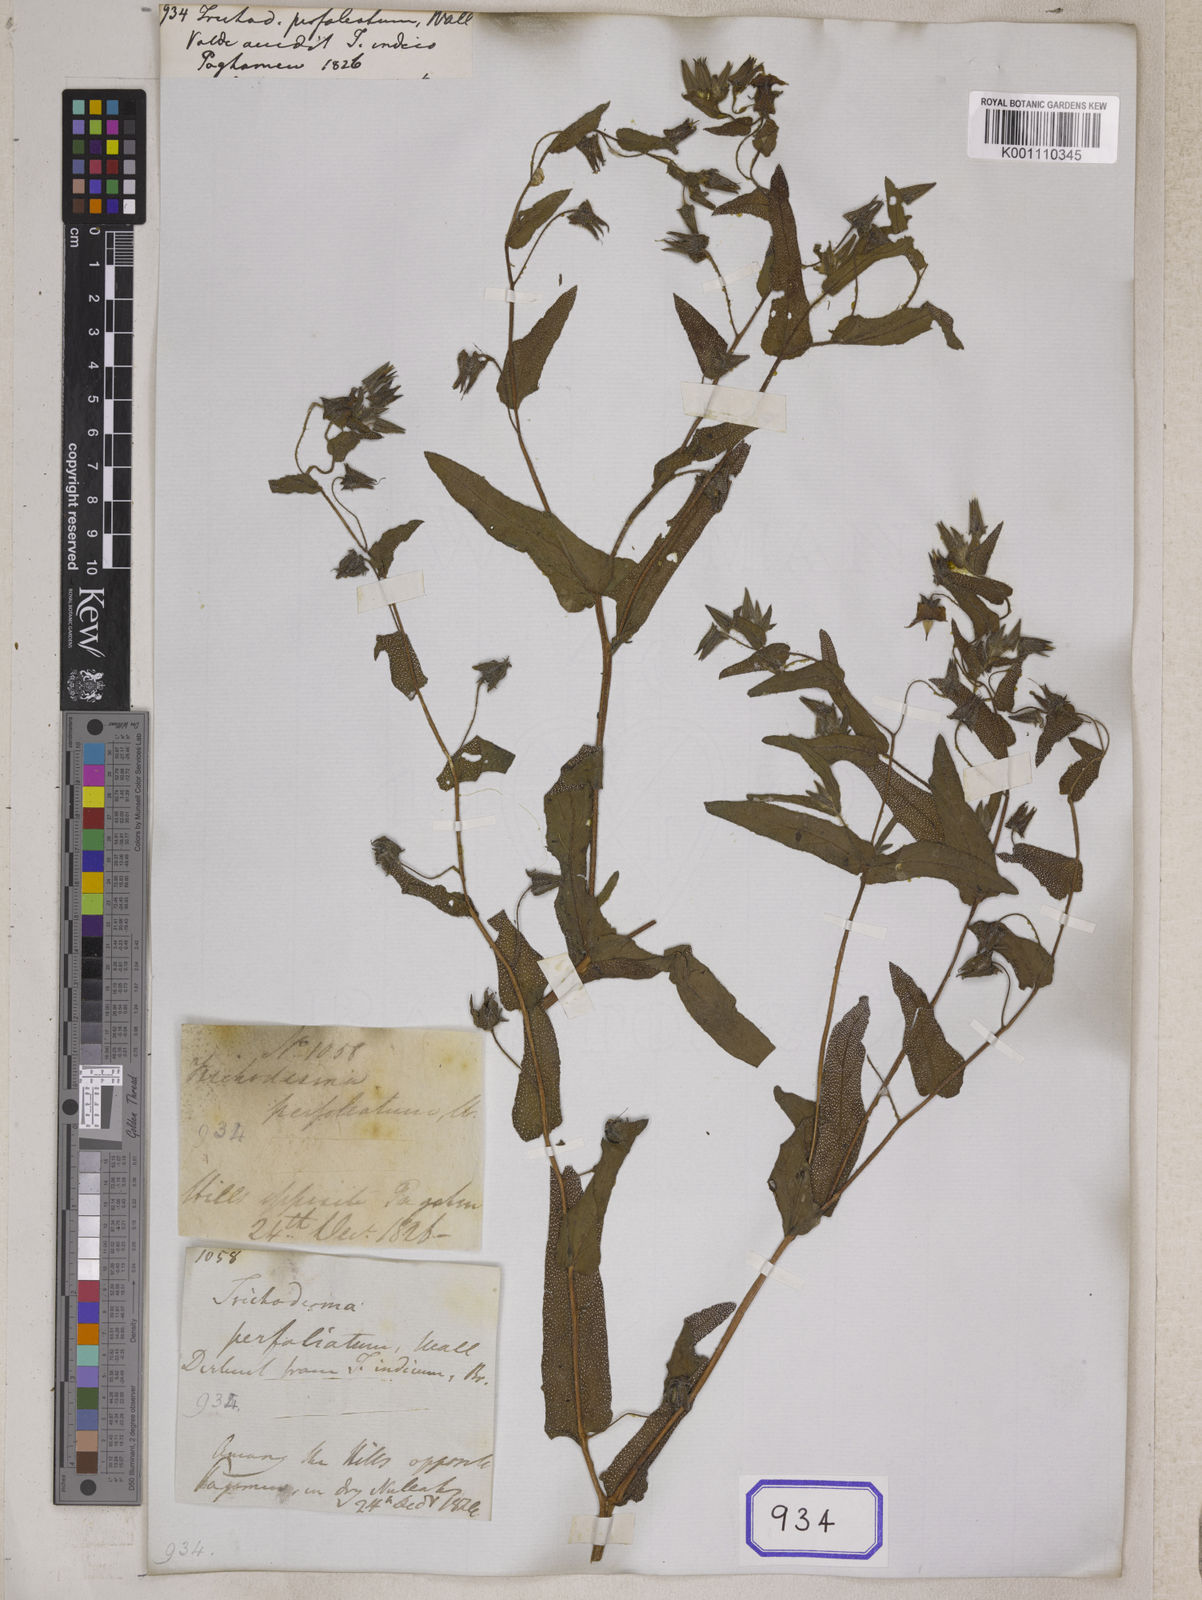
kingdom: Plantae
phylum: Tracheophyta
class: Magnoliopsida
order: Boraginales
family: Boraginaceae
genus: Trichodesma
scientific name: Trichodesma indicum
